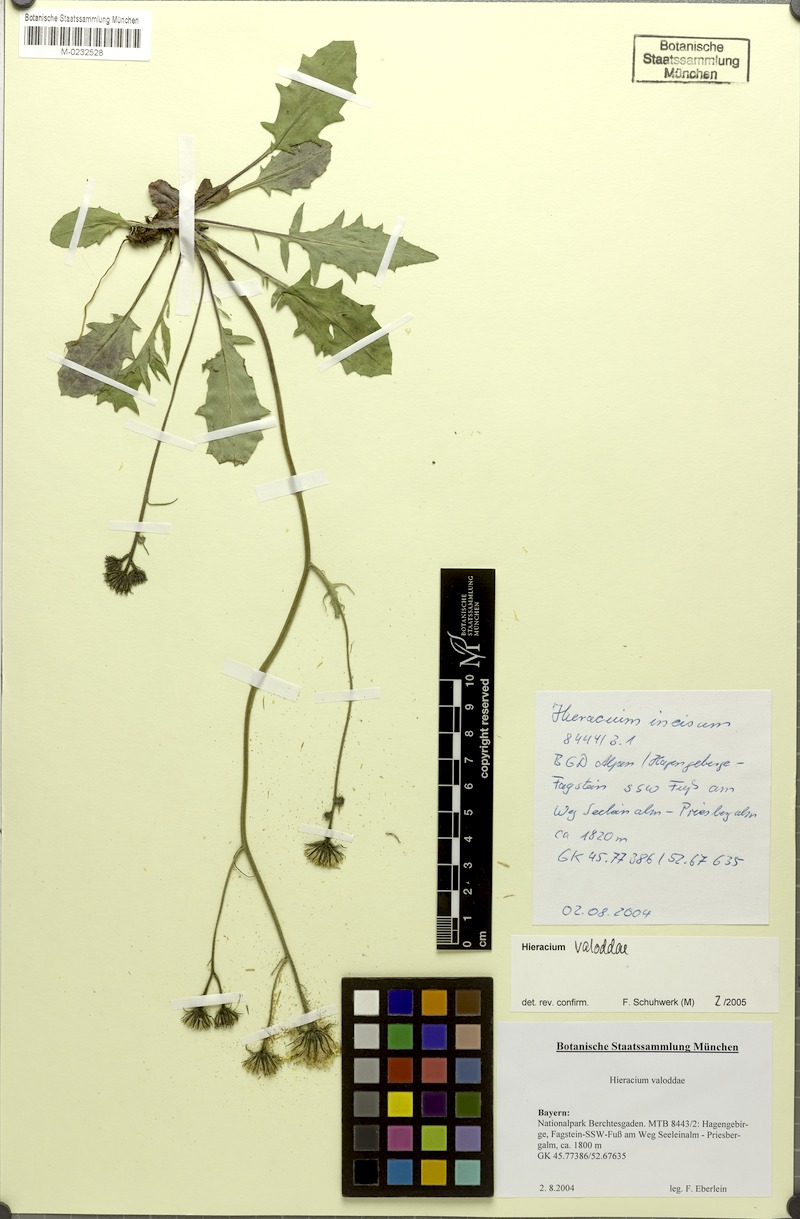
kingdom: Plantae
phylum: Tracheophyta
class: Magnoliopsida
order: Asterales
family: Asteraceae
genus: Hieracium
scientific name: Hieracium valoddae
